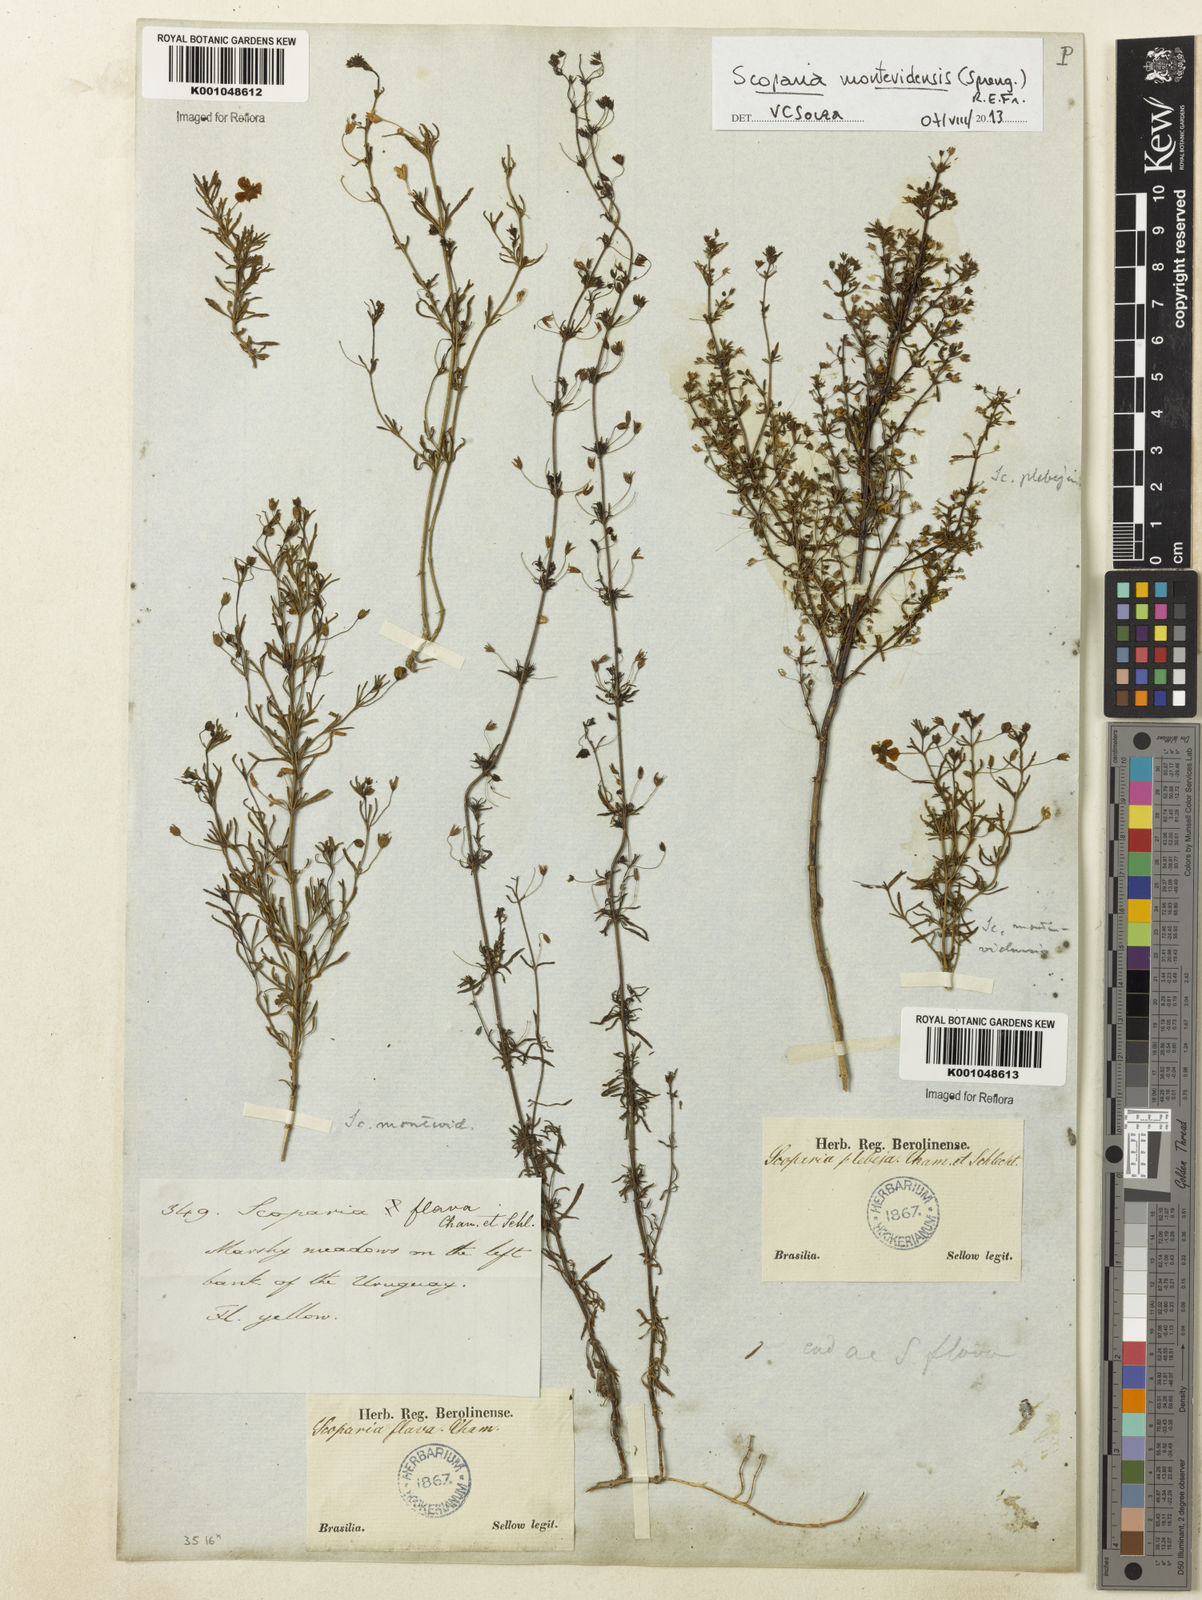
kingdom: Plantae
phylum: Tracheophyta
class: Magnoliopsida
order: Lamiales
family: Plantaginaceae
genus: Scoparia
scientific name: Scoparia montevidensis
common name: Broomwort
